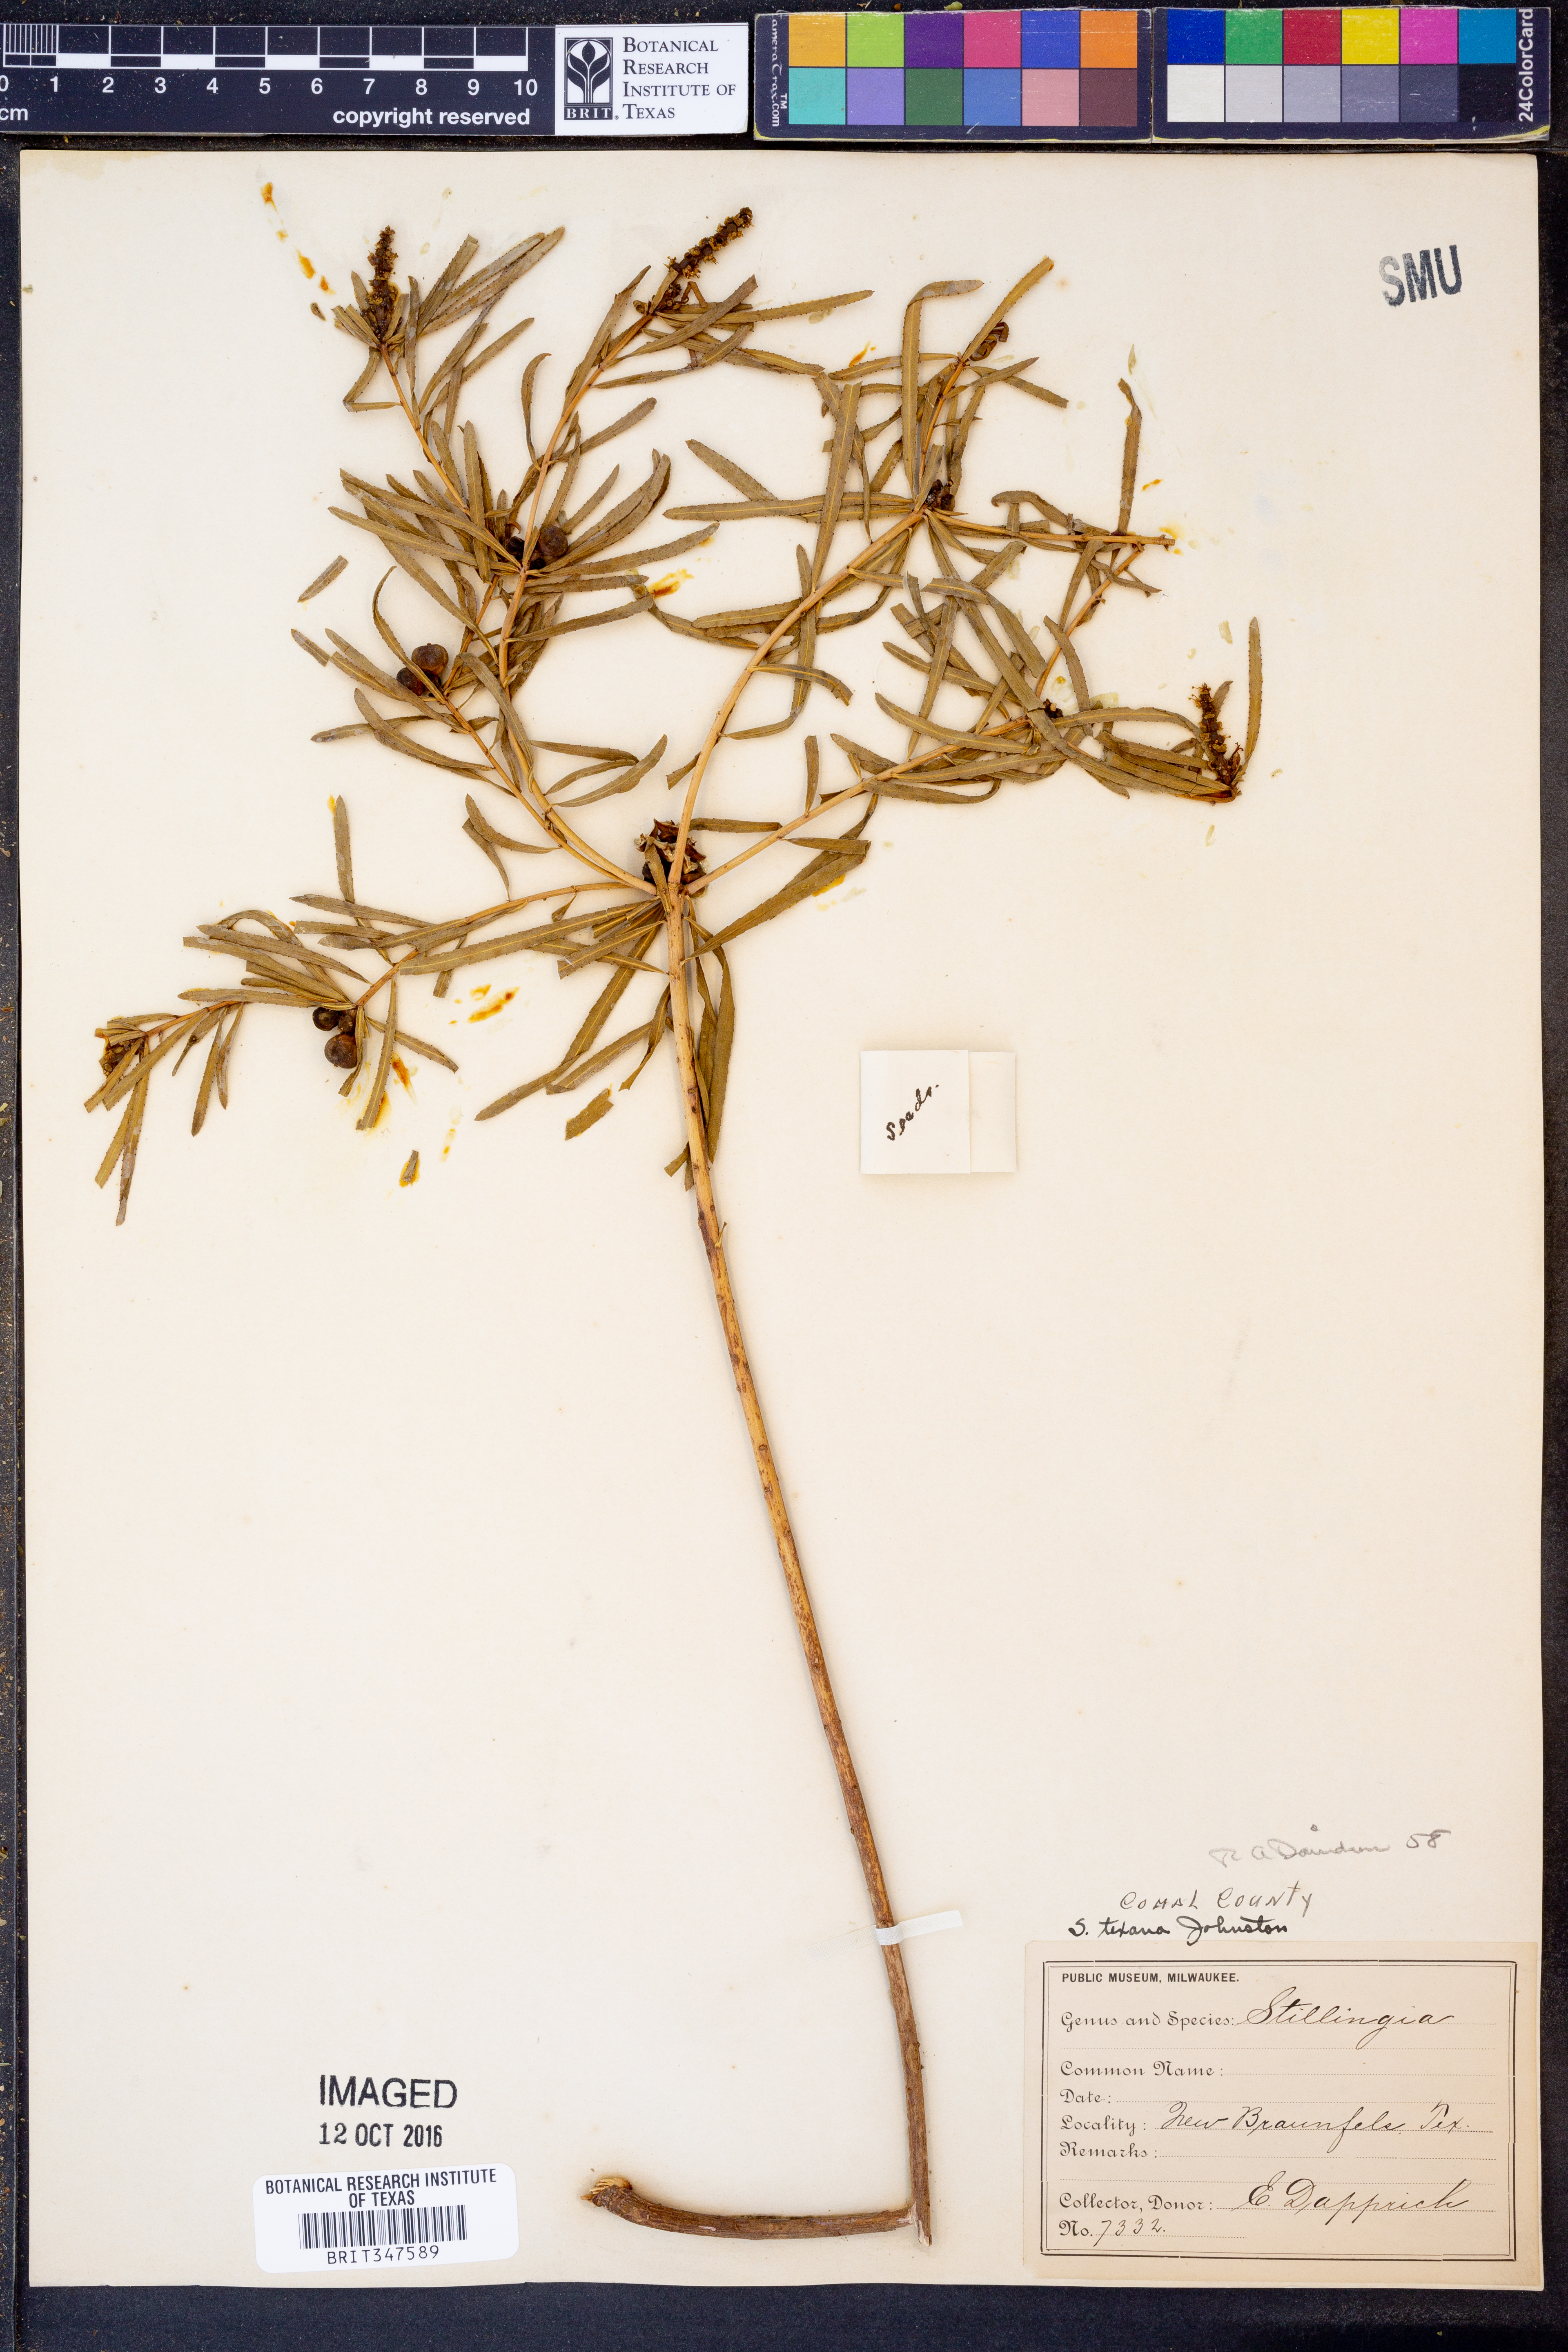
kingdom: Plantae
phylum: Tracheophyta
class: Magnoliopsida
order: Malpighiales
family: Euphorbiaceae
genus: Stillingia
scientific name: Stillingia texana
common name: Texas stillingia
